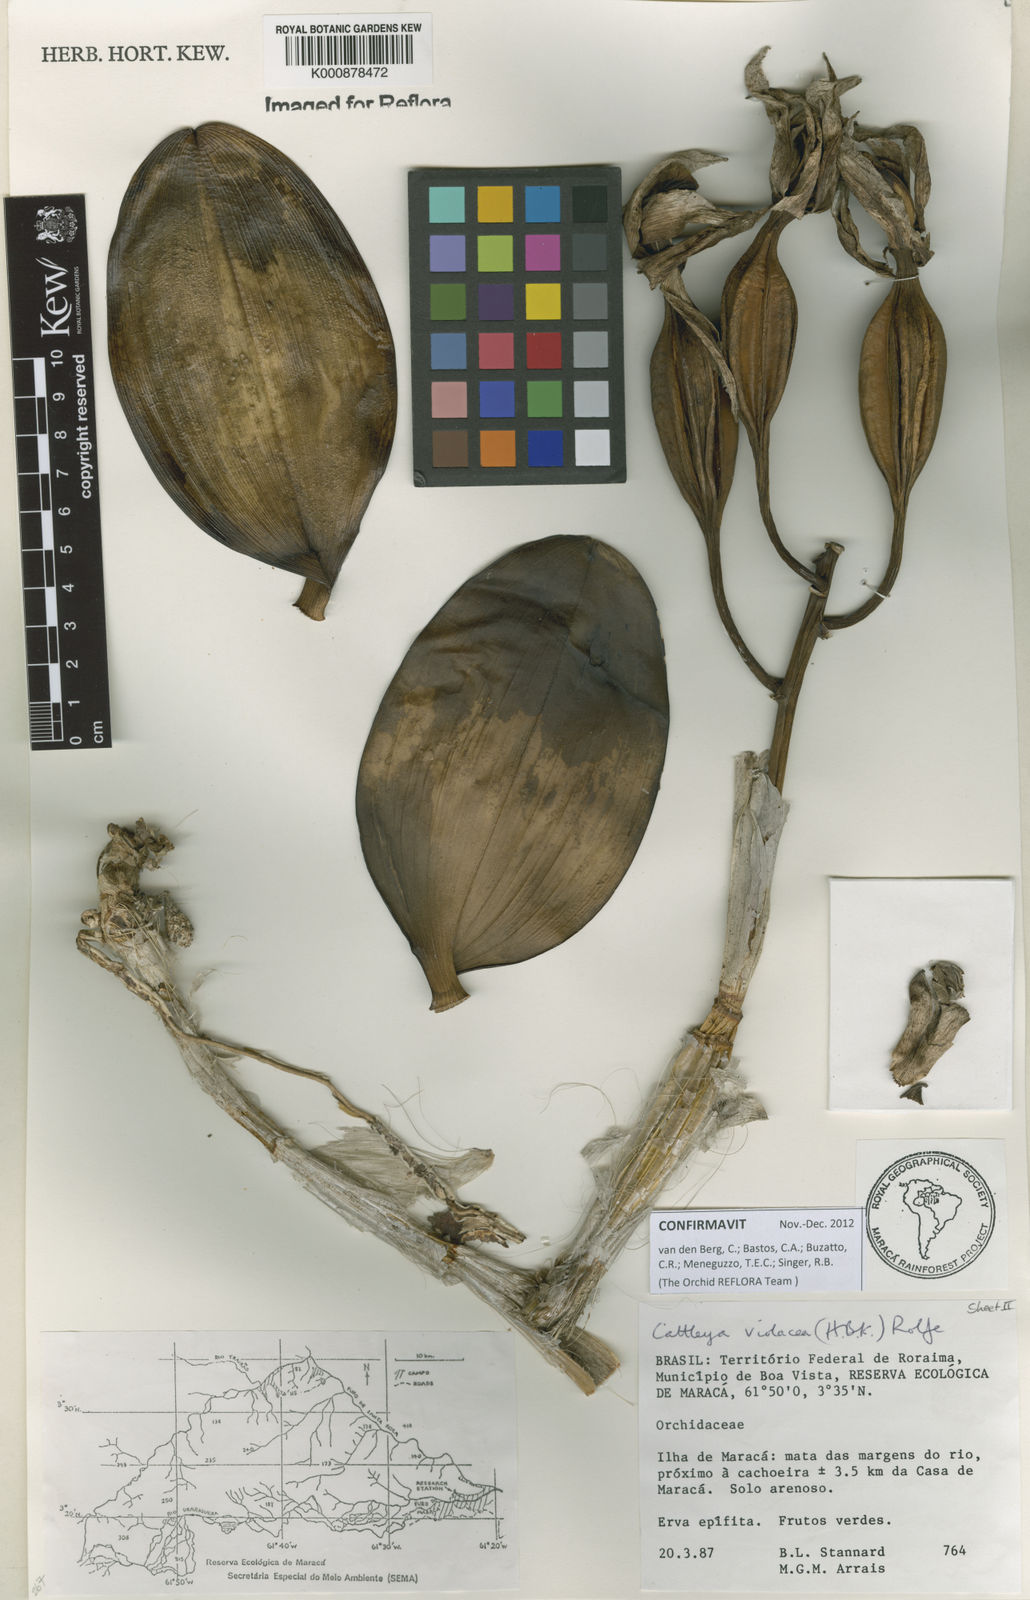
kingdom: Plantae
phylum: Tracheophyta
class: Liliopsida
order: Asparagales
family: Orchidaceae
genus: Cattleya
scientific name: Cattleya
